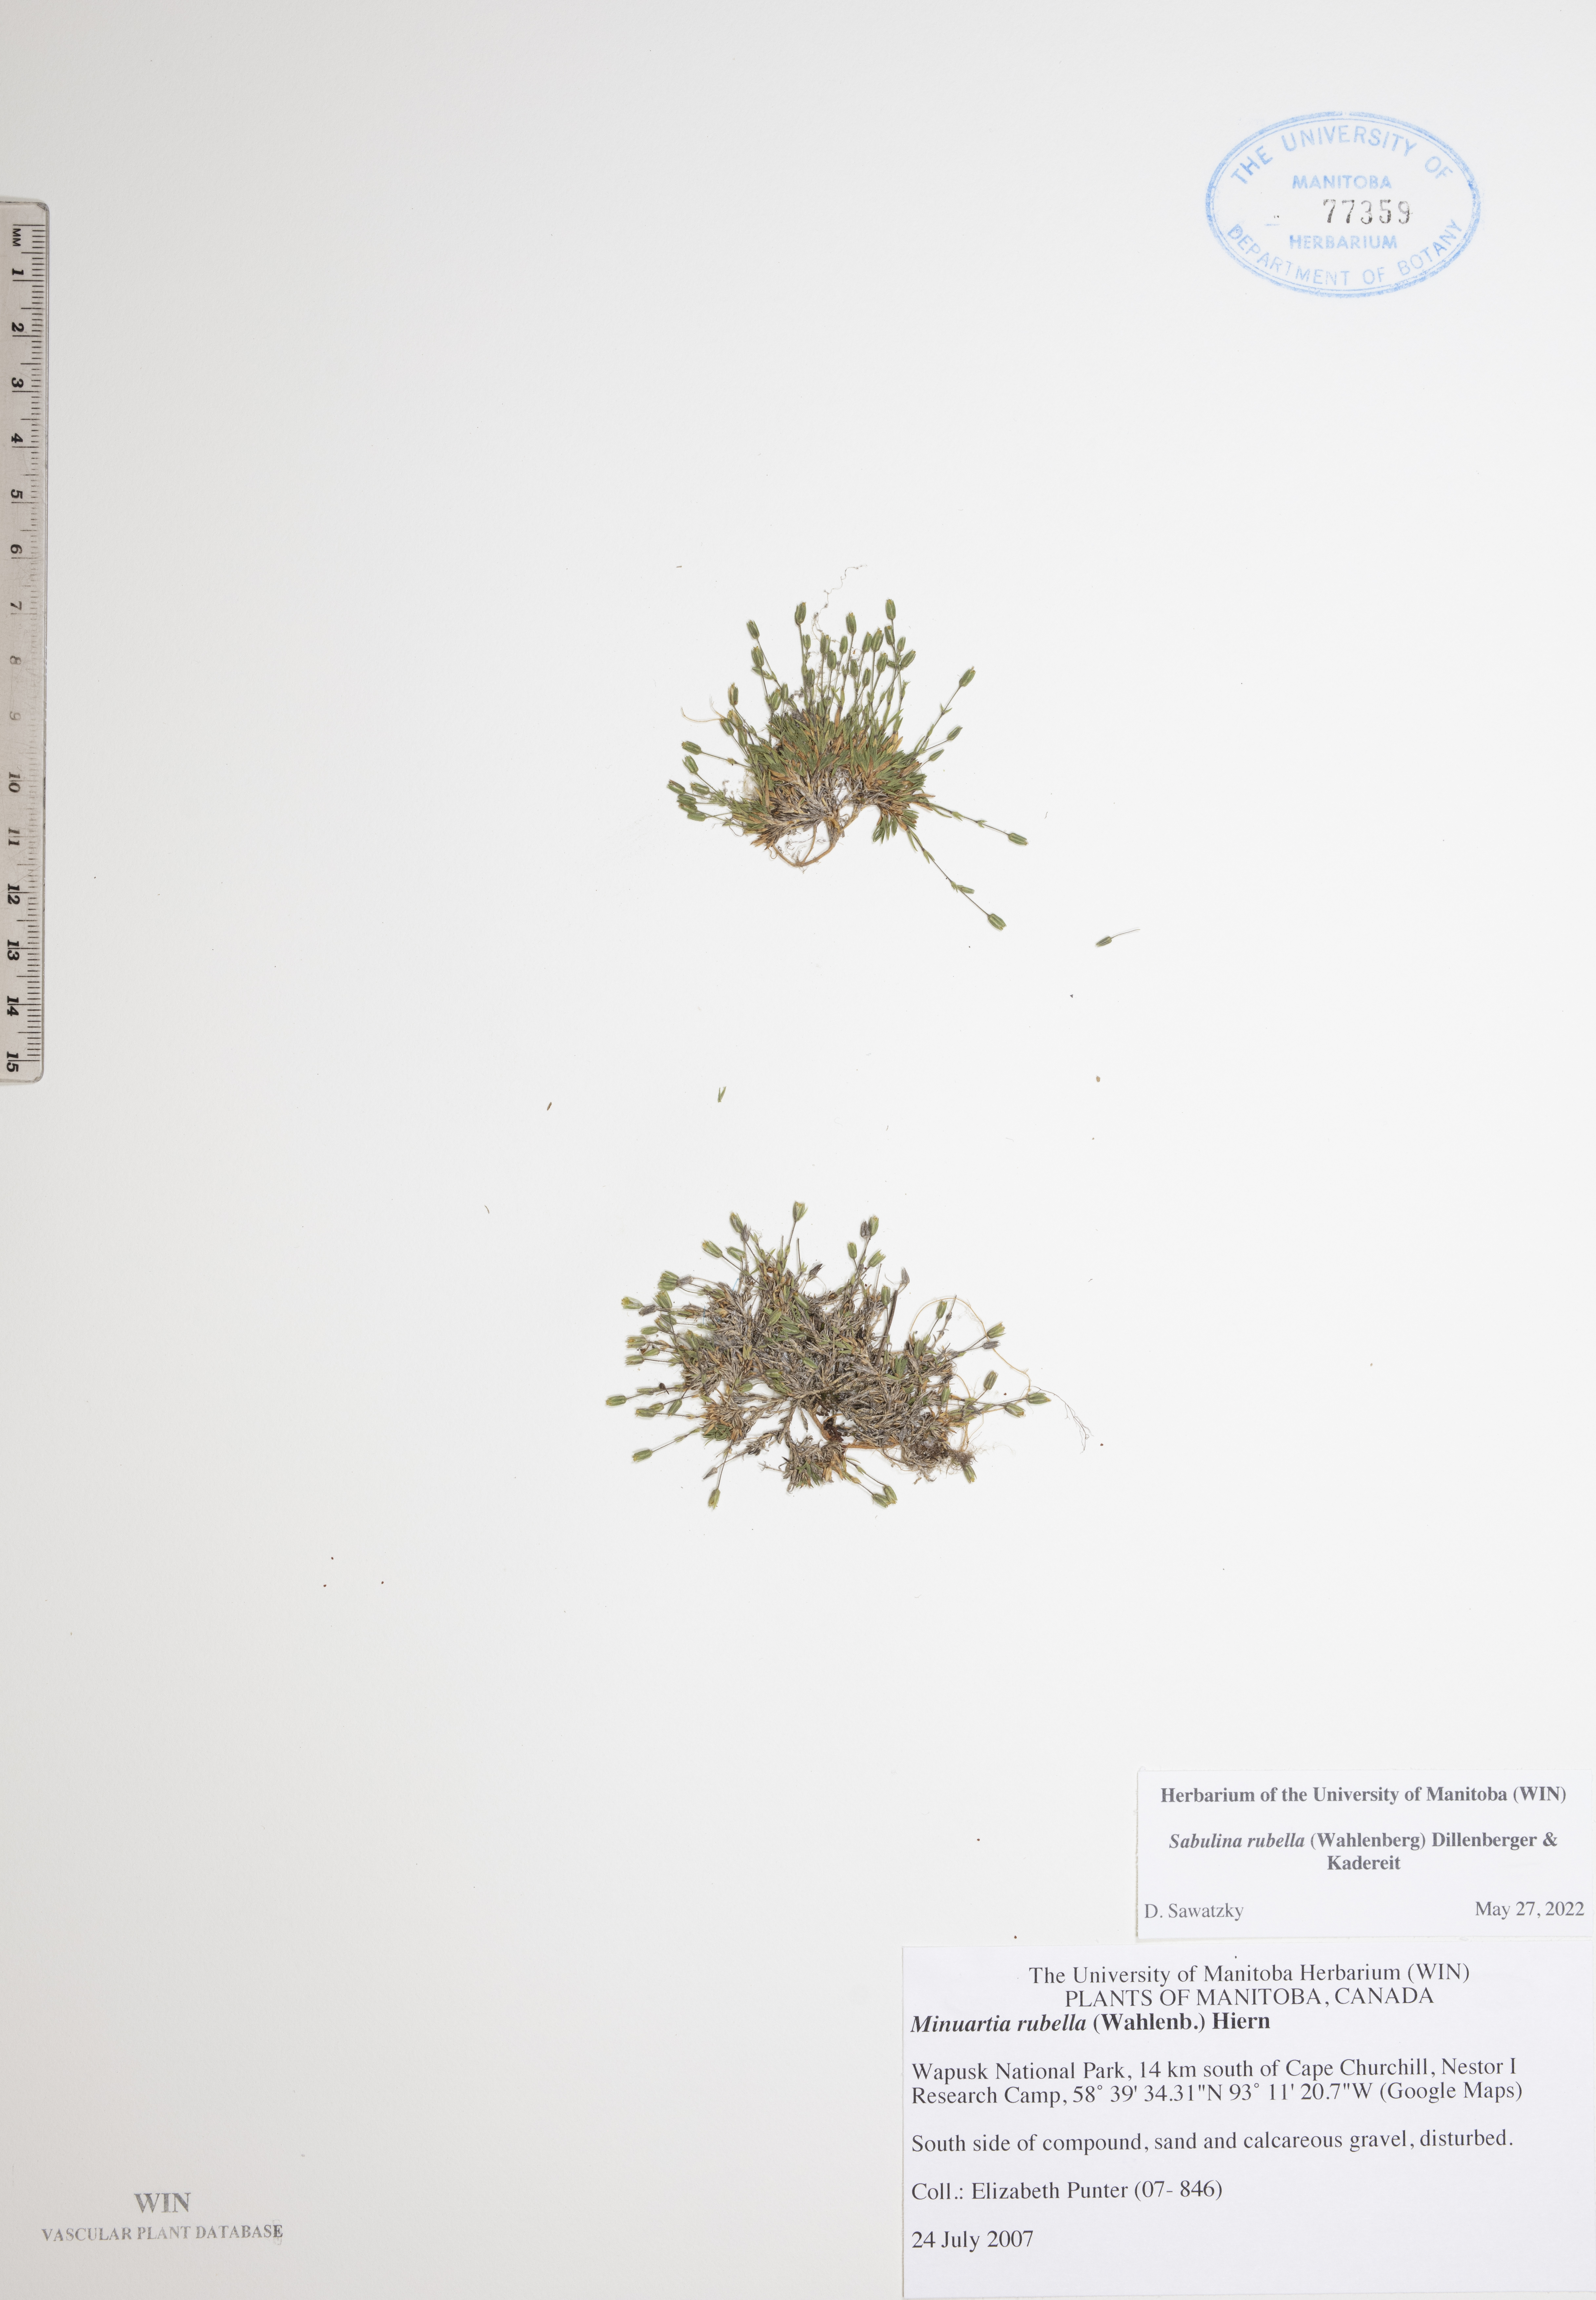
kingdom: Plantae
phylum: Tracheophyta
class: Magnoliopsida
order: Caryophyllales
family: Caryophyllaceae
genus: Sabulina
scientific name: Sabulina rubella
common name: Beautiful sandwort
